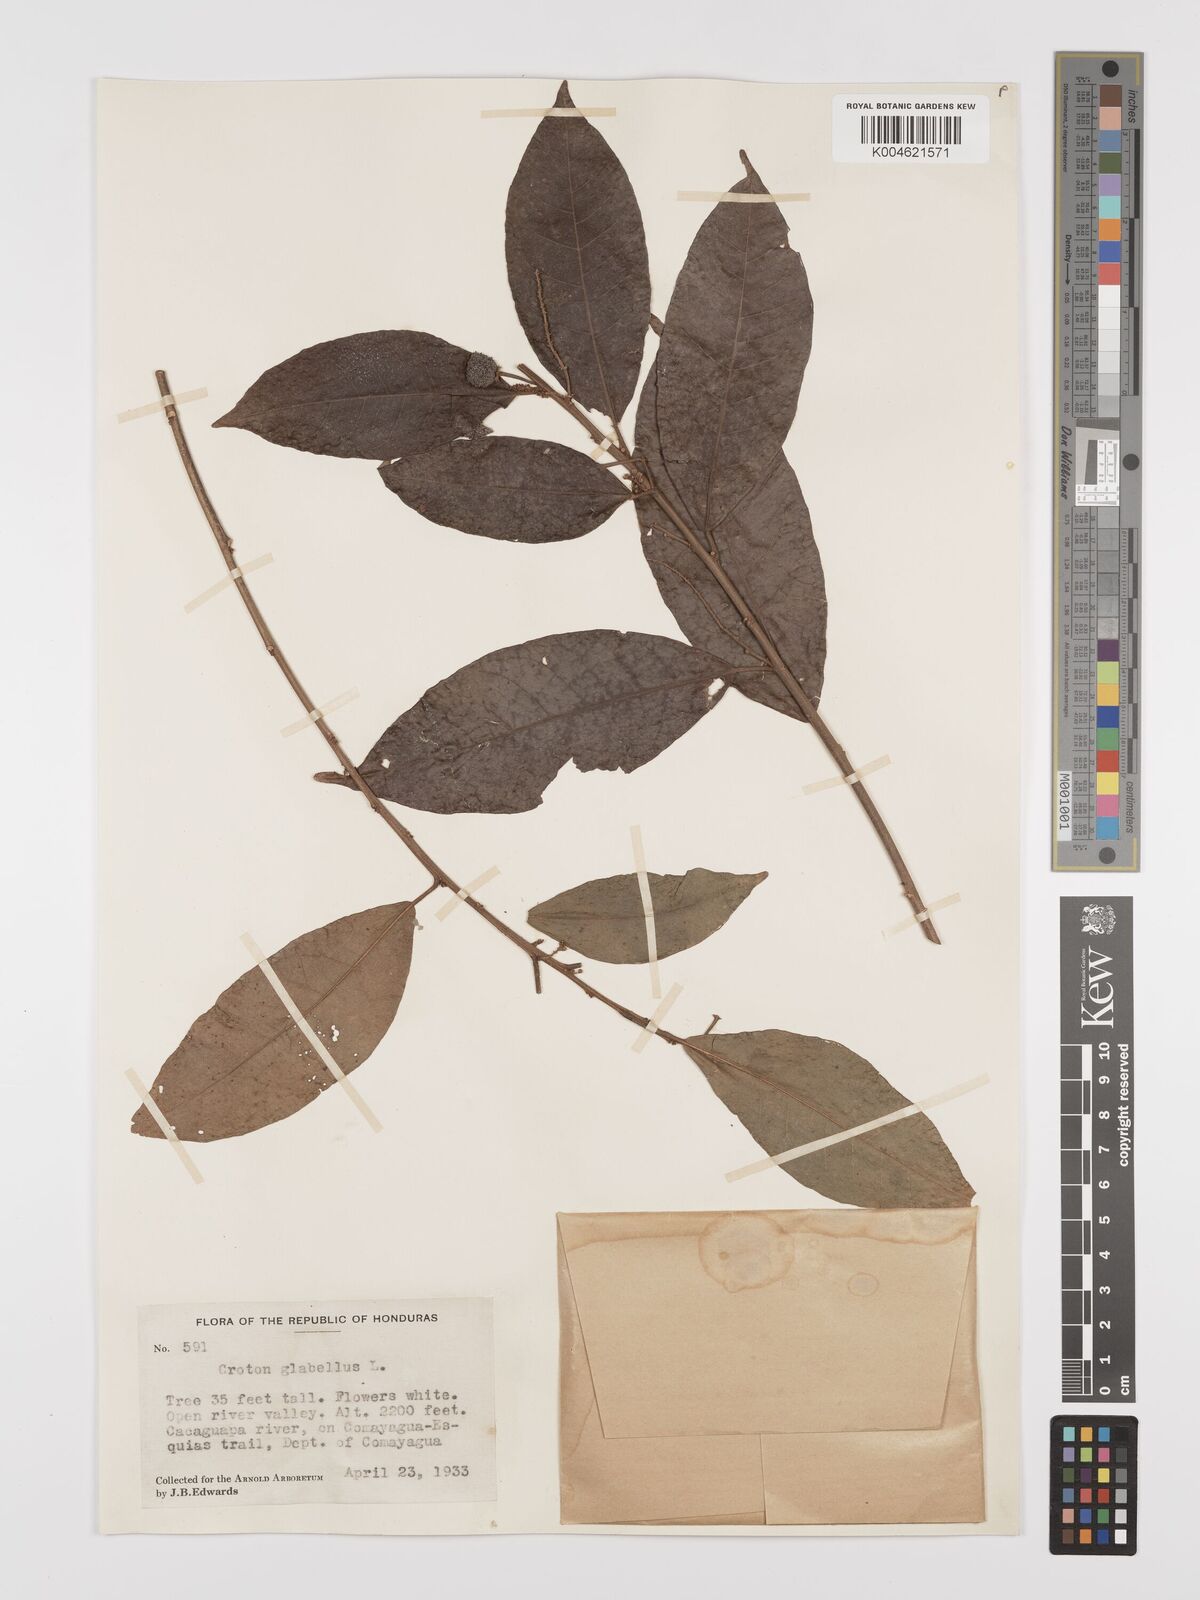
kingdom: Plantae
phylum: Tracheophyta
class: Magnoliopsida
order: Malpighiales
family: Euphorbiaceae
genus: Croton
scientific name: Croton glabellus
